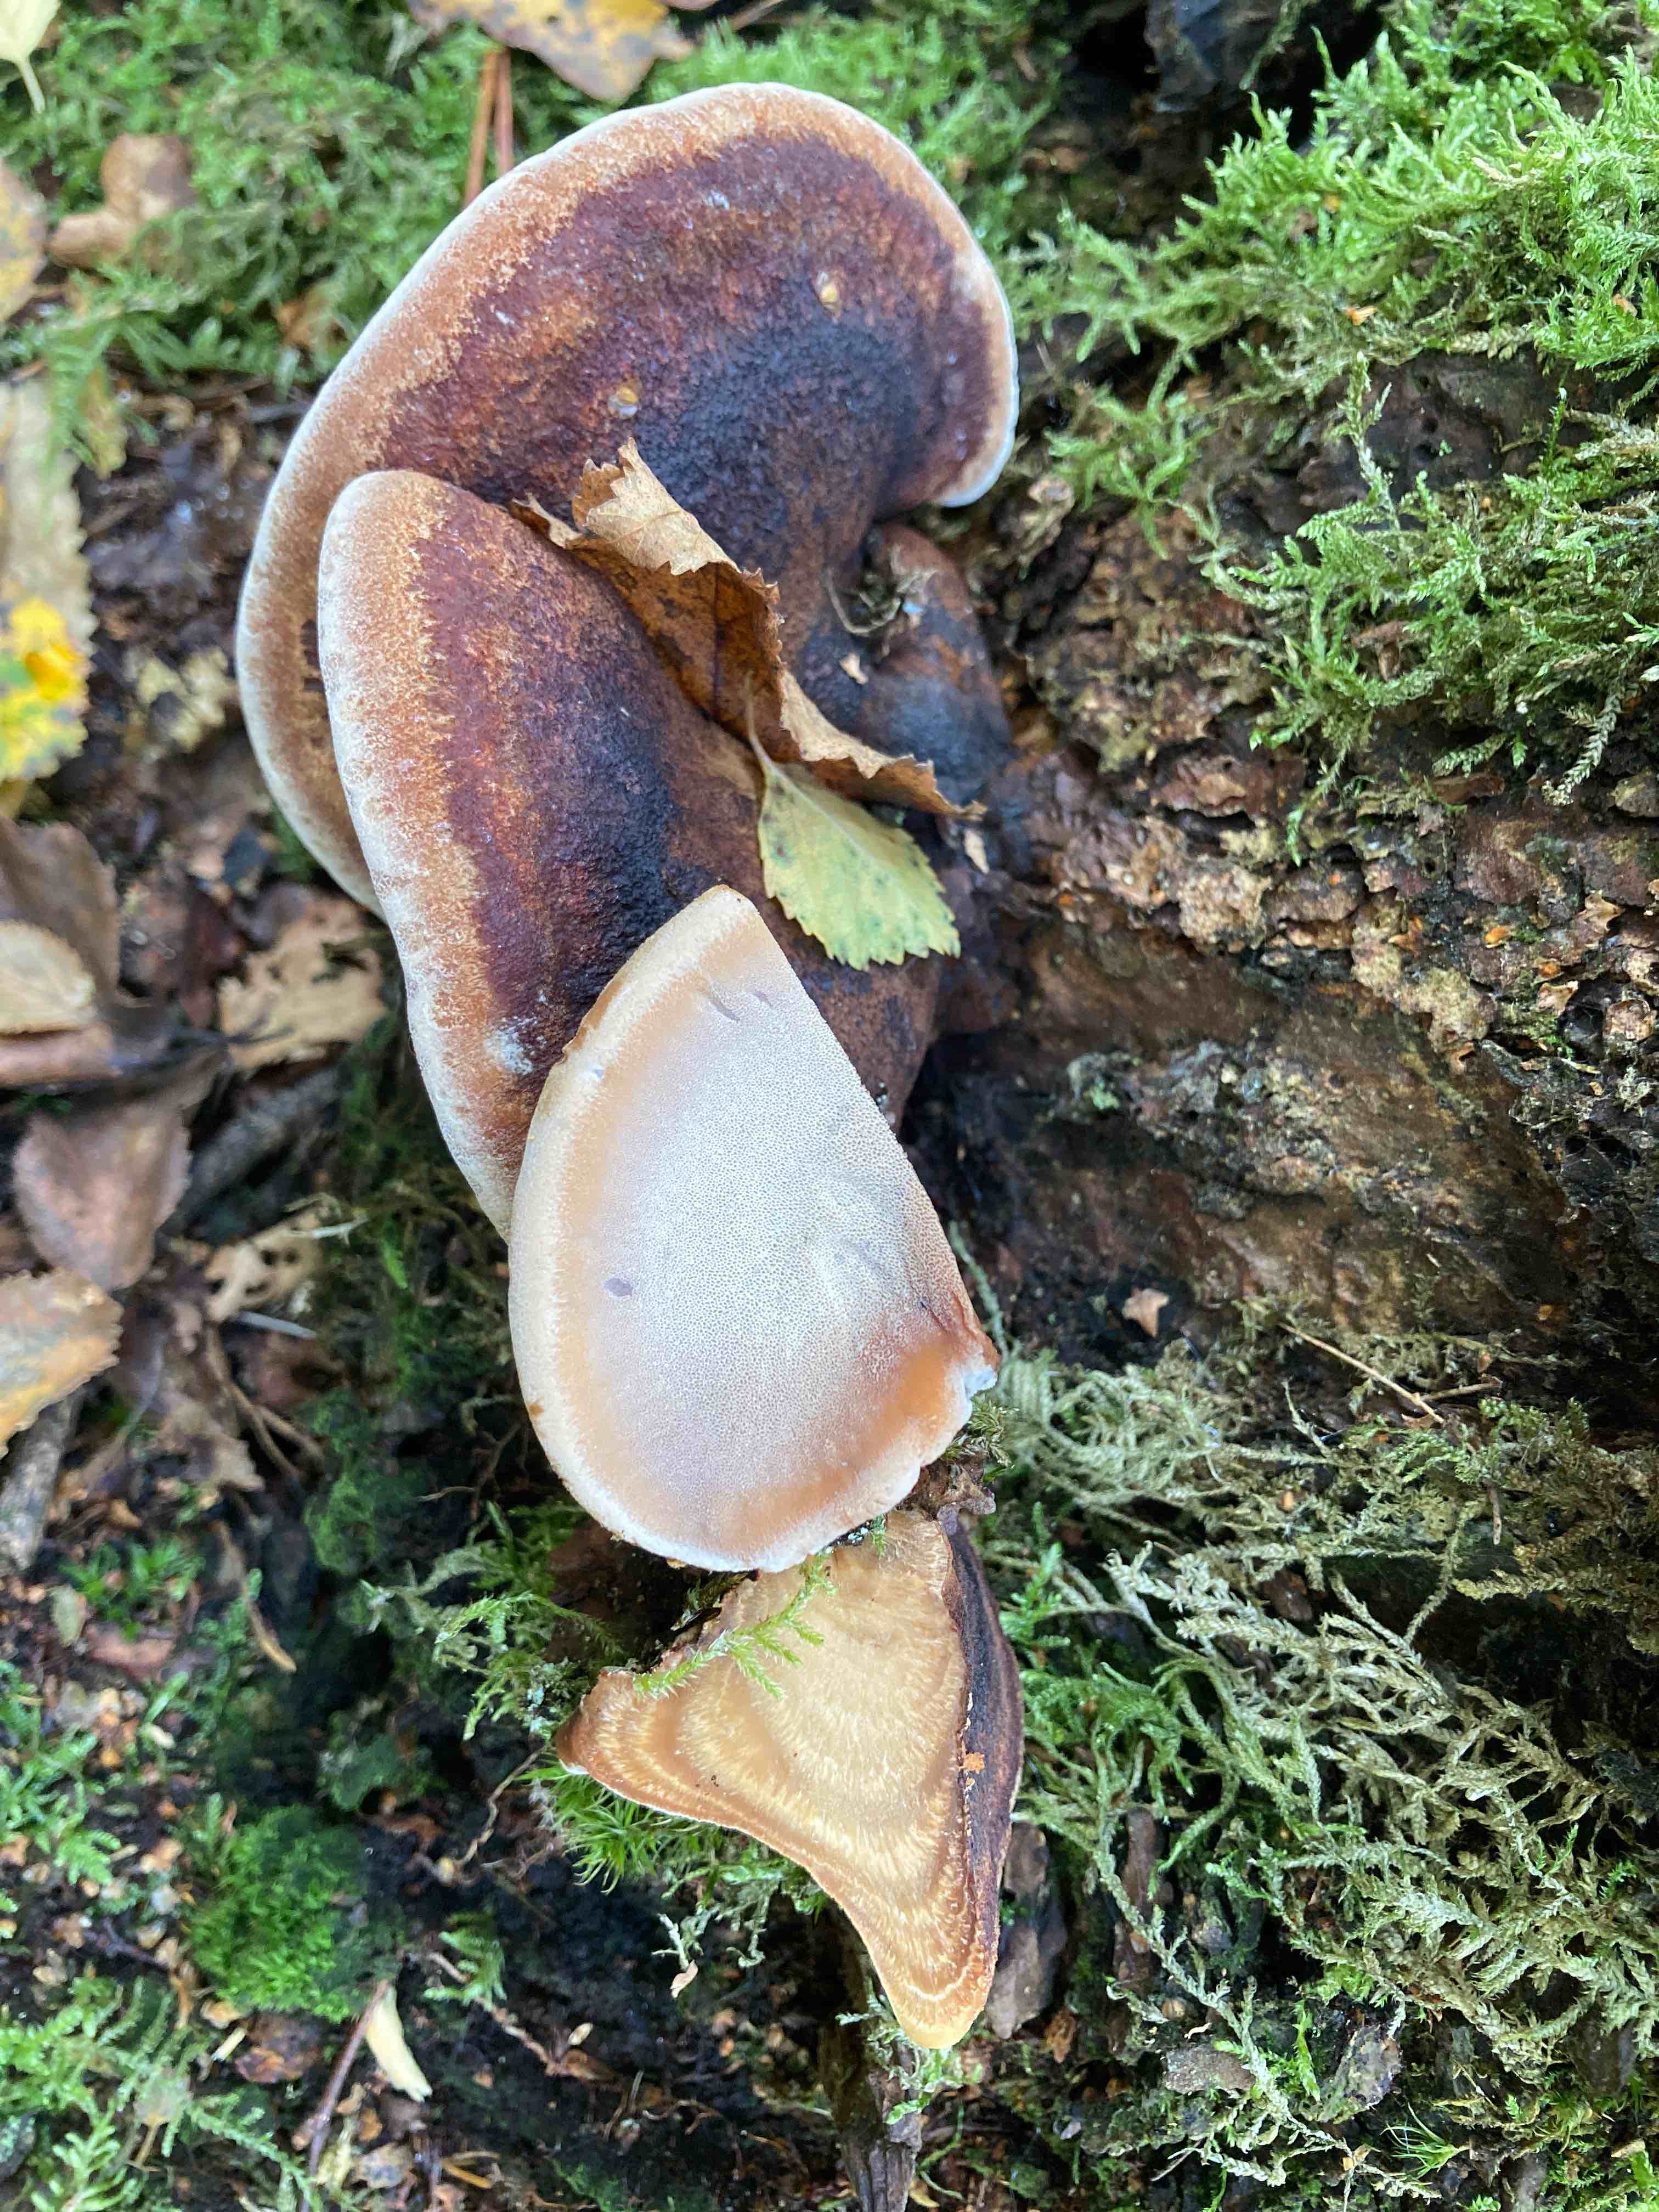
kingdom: Fungi
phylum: Basidiomycota
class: Agaricomycetes
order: Polyporales
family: Ischnodermataceae
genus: Ischnoderma
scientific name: Ischnoderma benzoinum
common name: gran-tjæreporesvamp
